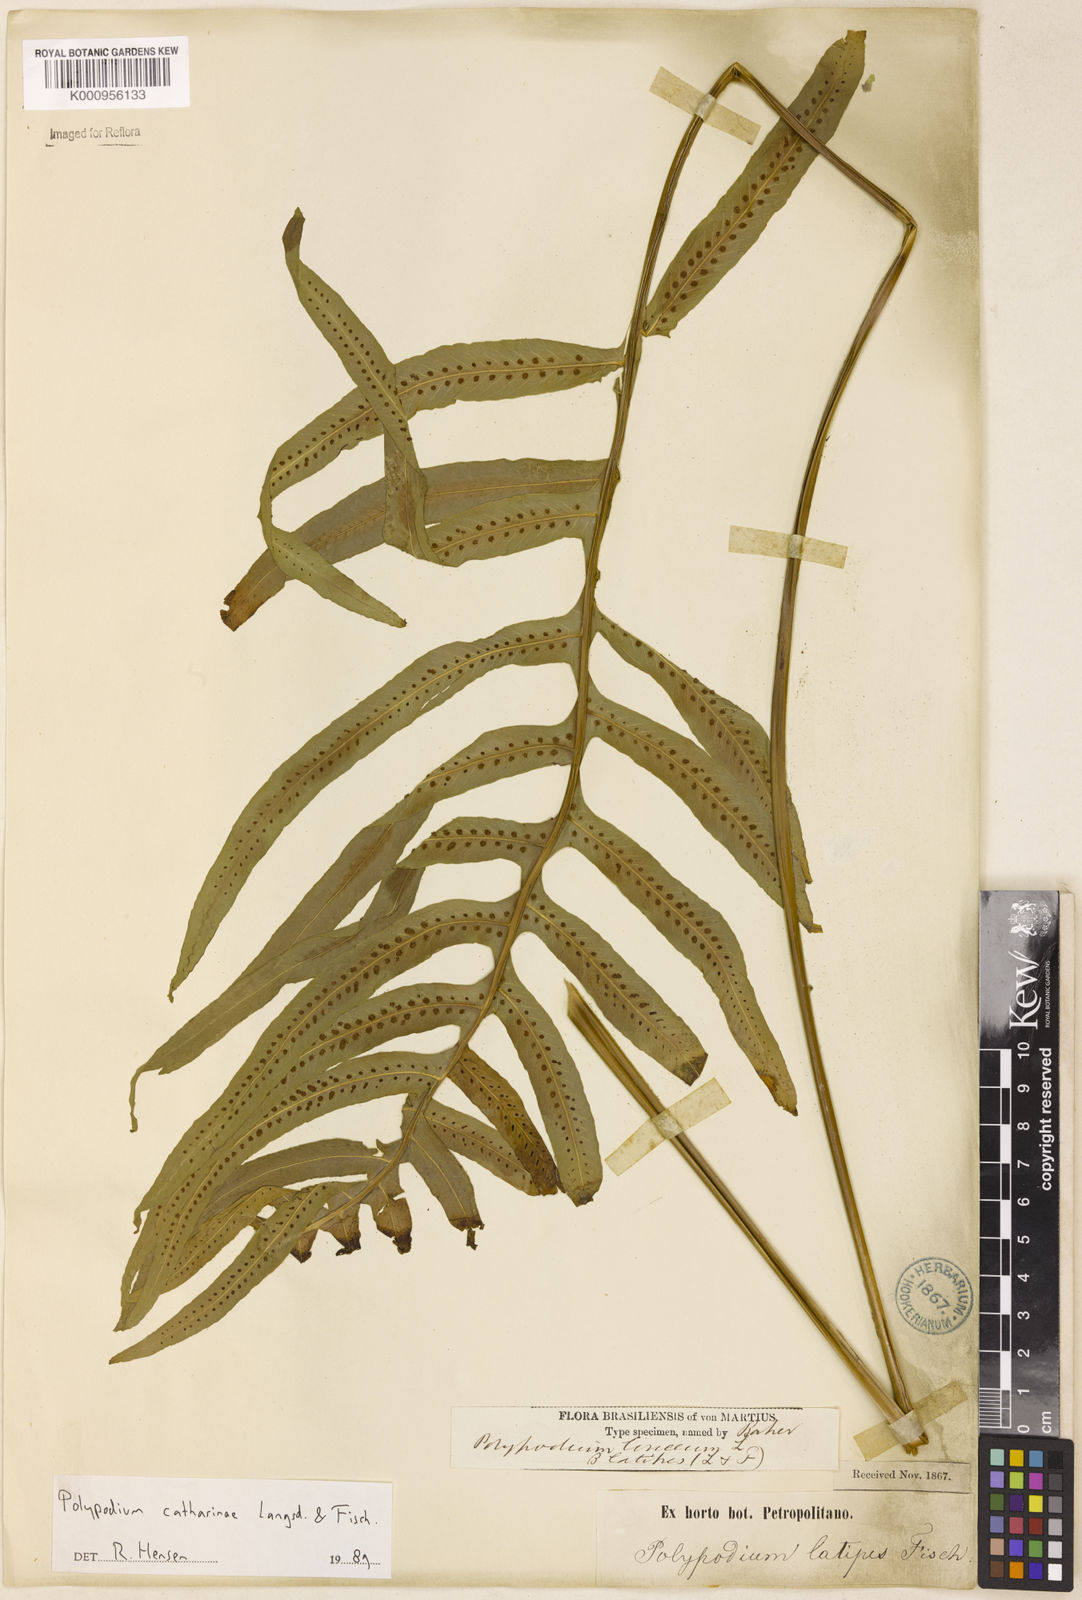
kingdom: Plantae
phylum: Tracheophyta
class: Polypodiopsida
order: Polypodiales
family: Polypodiaceae
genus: Serpocaulon
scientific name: Serpocaulon catharinae
